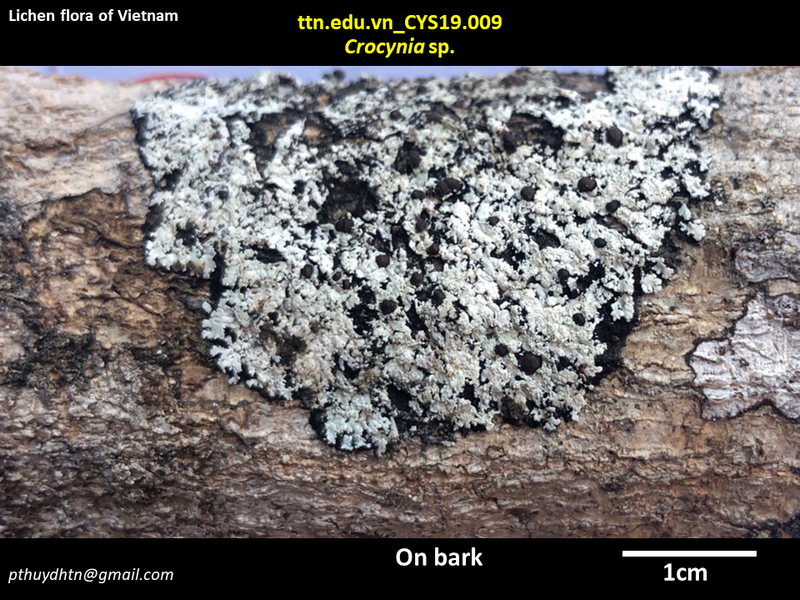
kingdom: Fungi
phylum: Ascomycota
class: Lecanoromycetes
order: Lecanorales
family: Ramalinaceae
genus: Crocynia
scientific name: Crocynia
